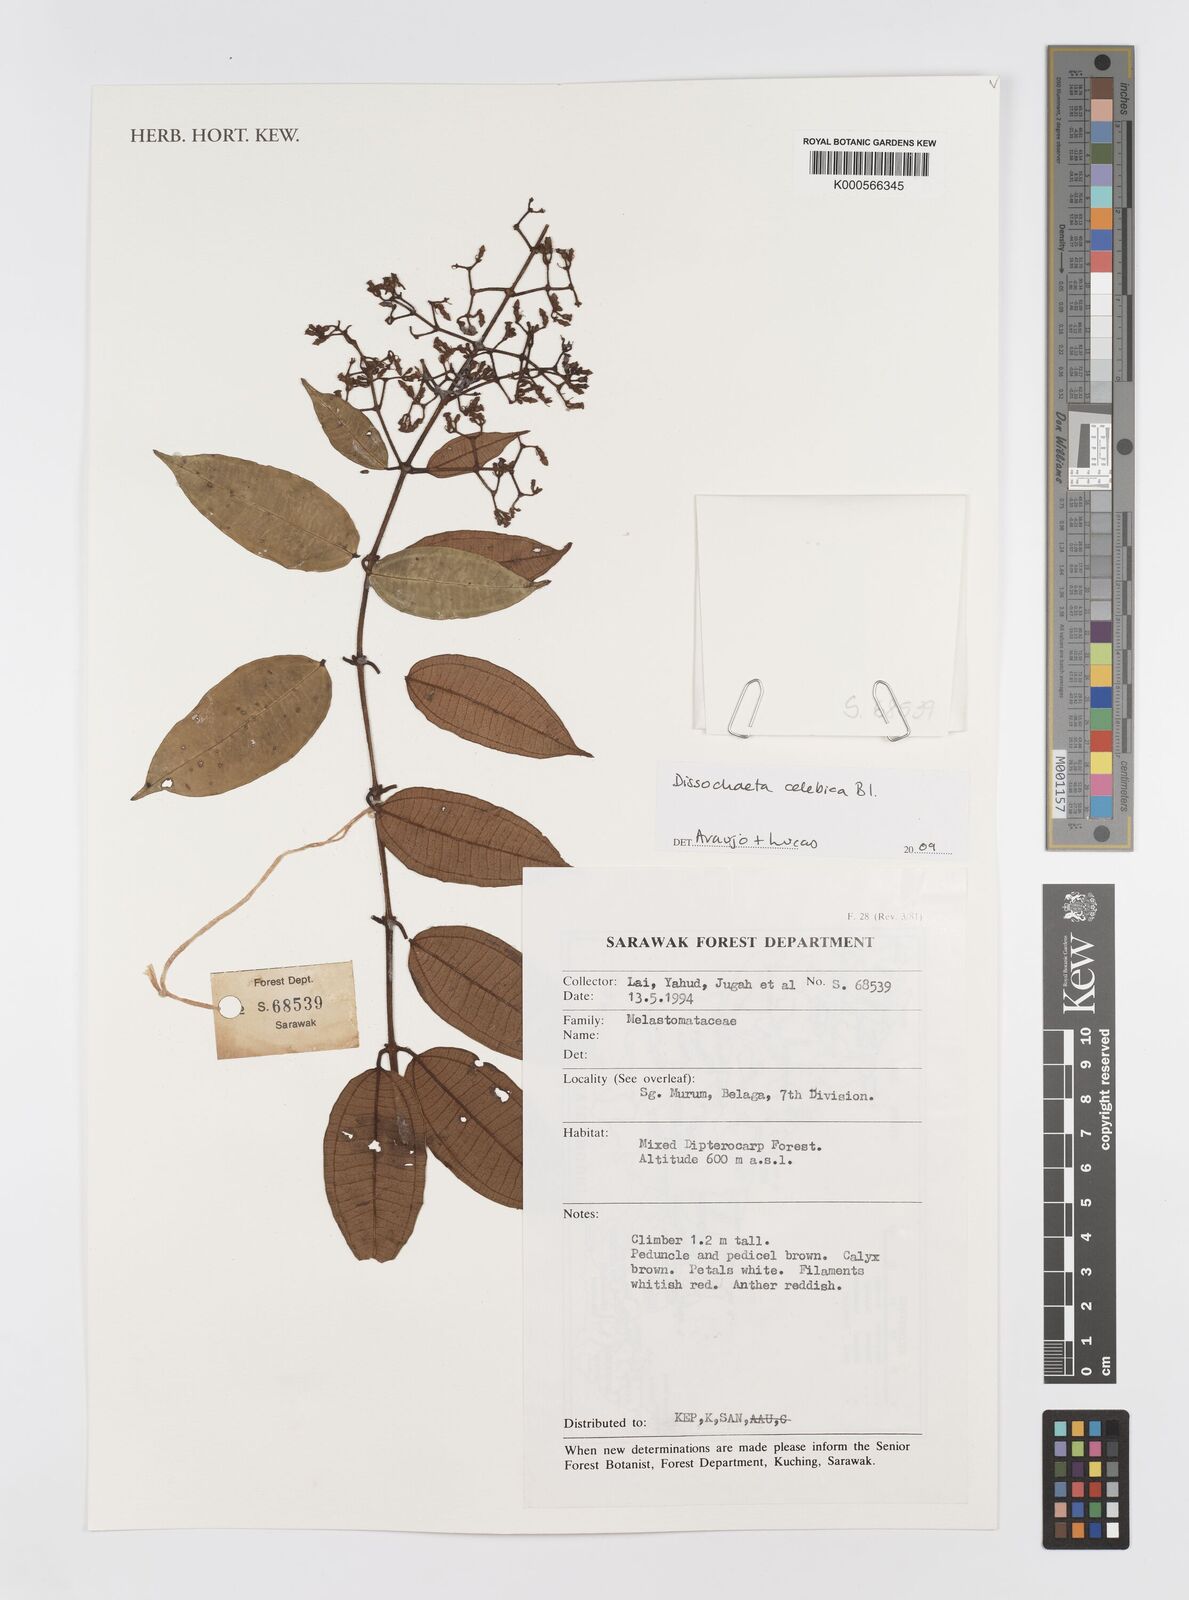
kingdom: Plantae
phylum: Tracheophyta
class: Magnoliopsida
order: Myrtales
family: Melastomataceae
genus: Dissochaeta
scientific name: Dissochaeta celebica
